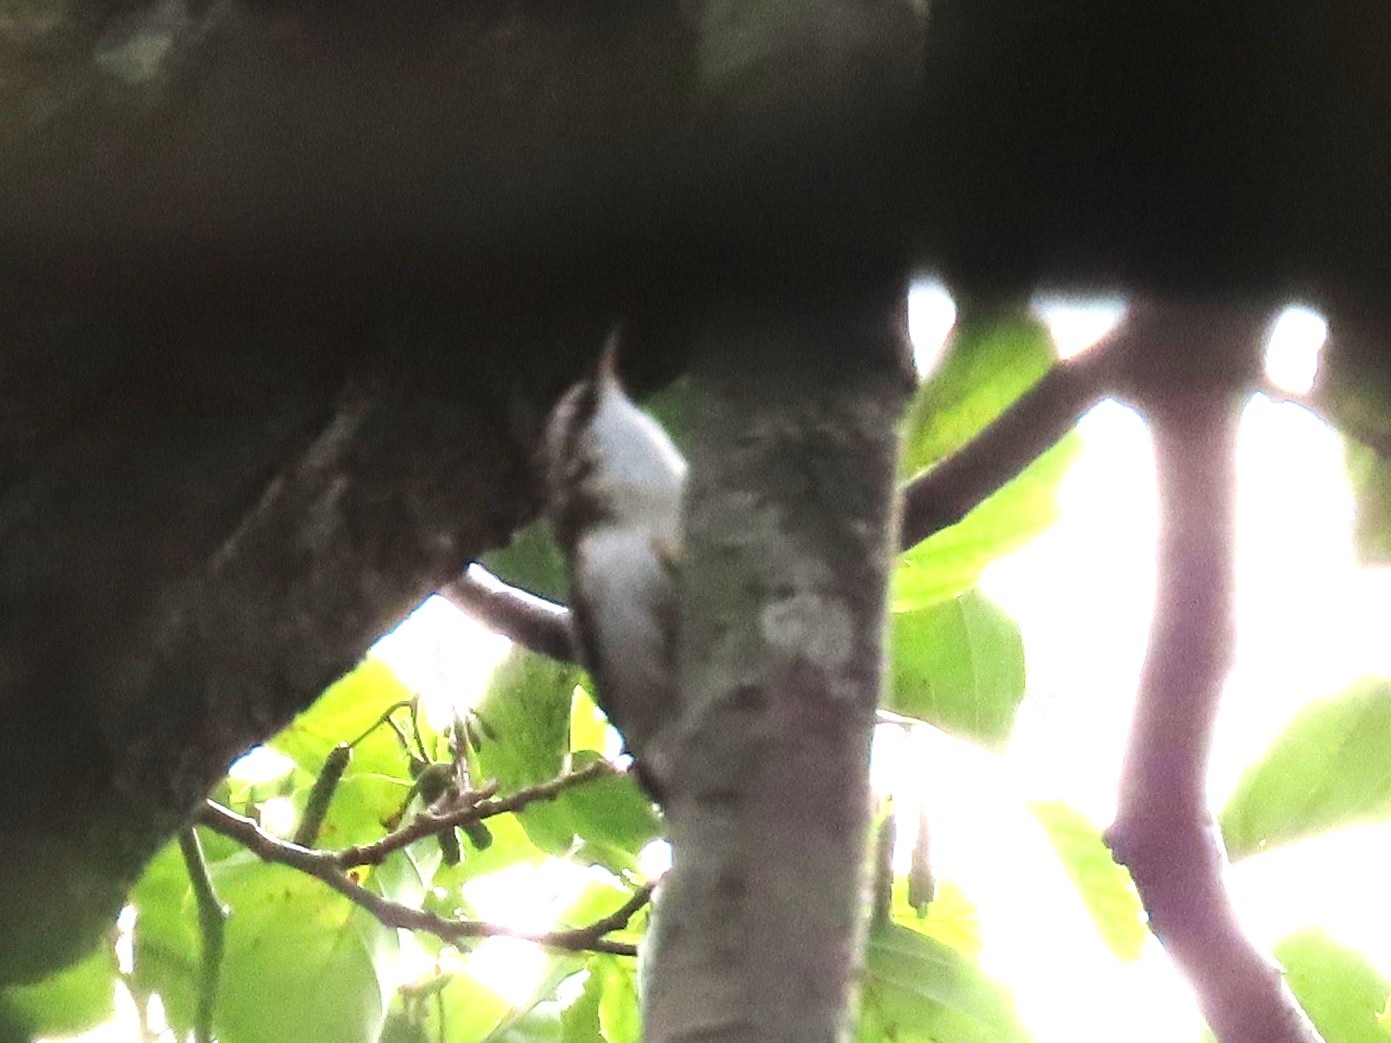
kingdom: Animalia
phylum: Chordata
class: Aves
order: Passeriformes
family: Certhiidae
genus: Certhia
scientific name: Certhia familiaris
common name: Træløber
